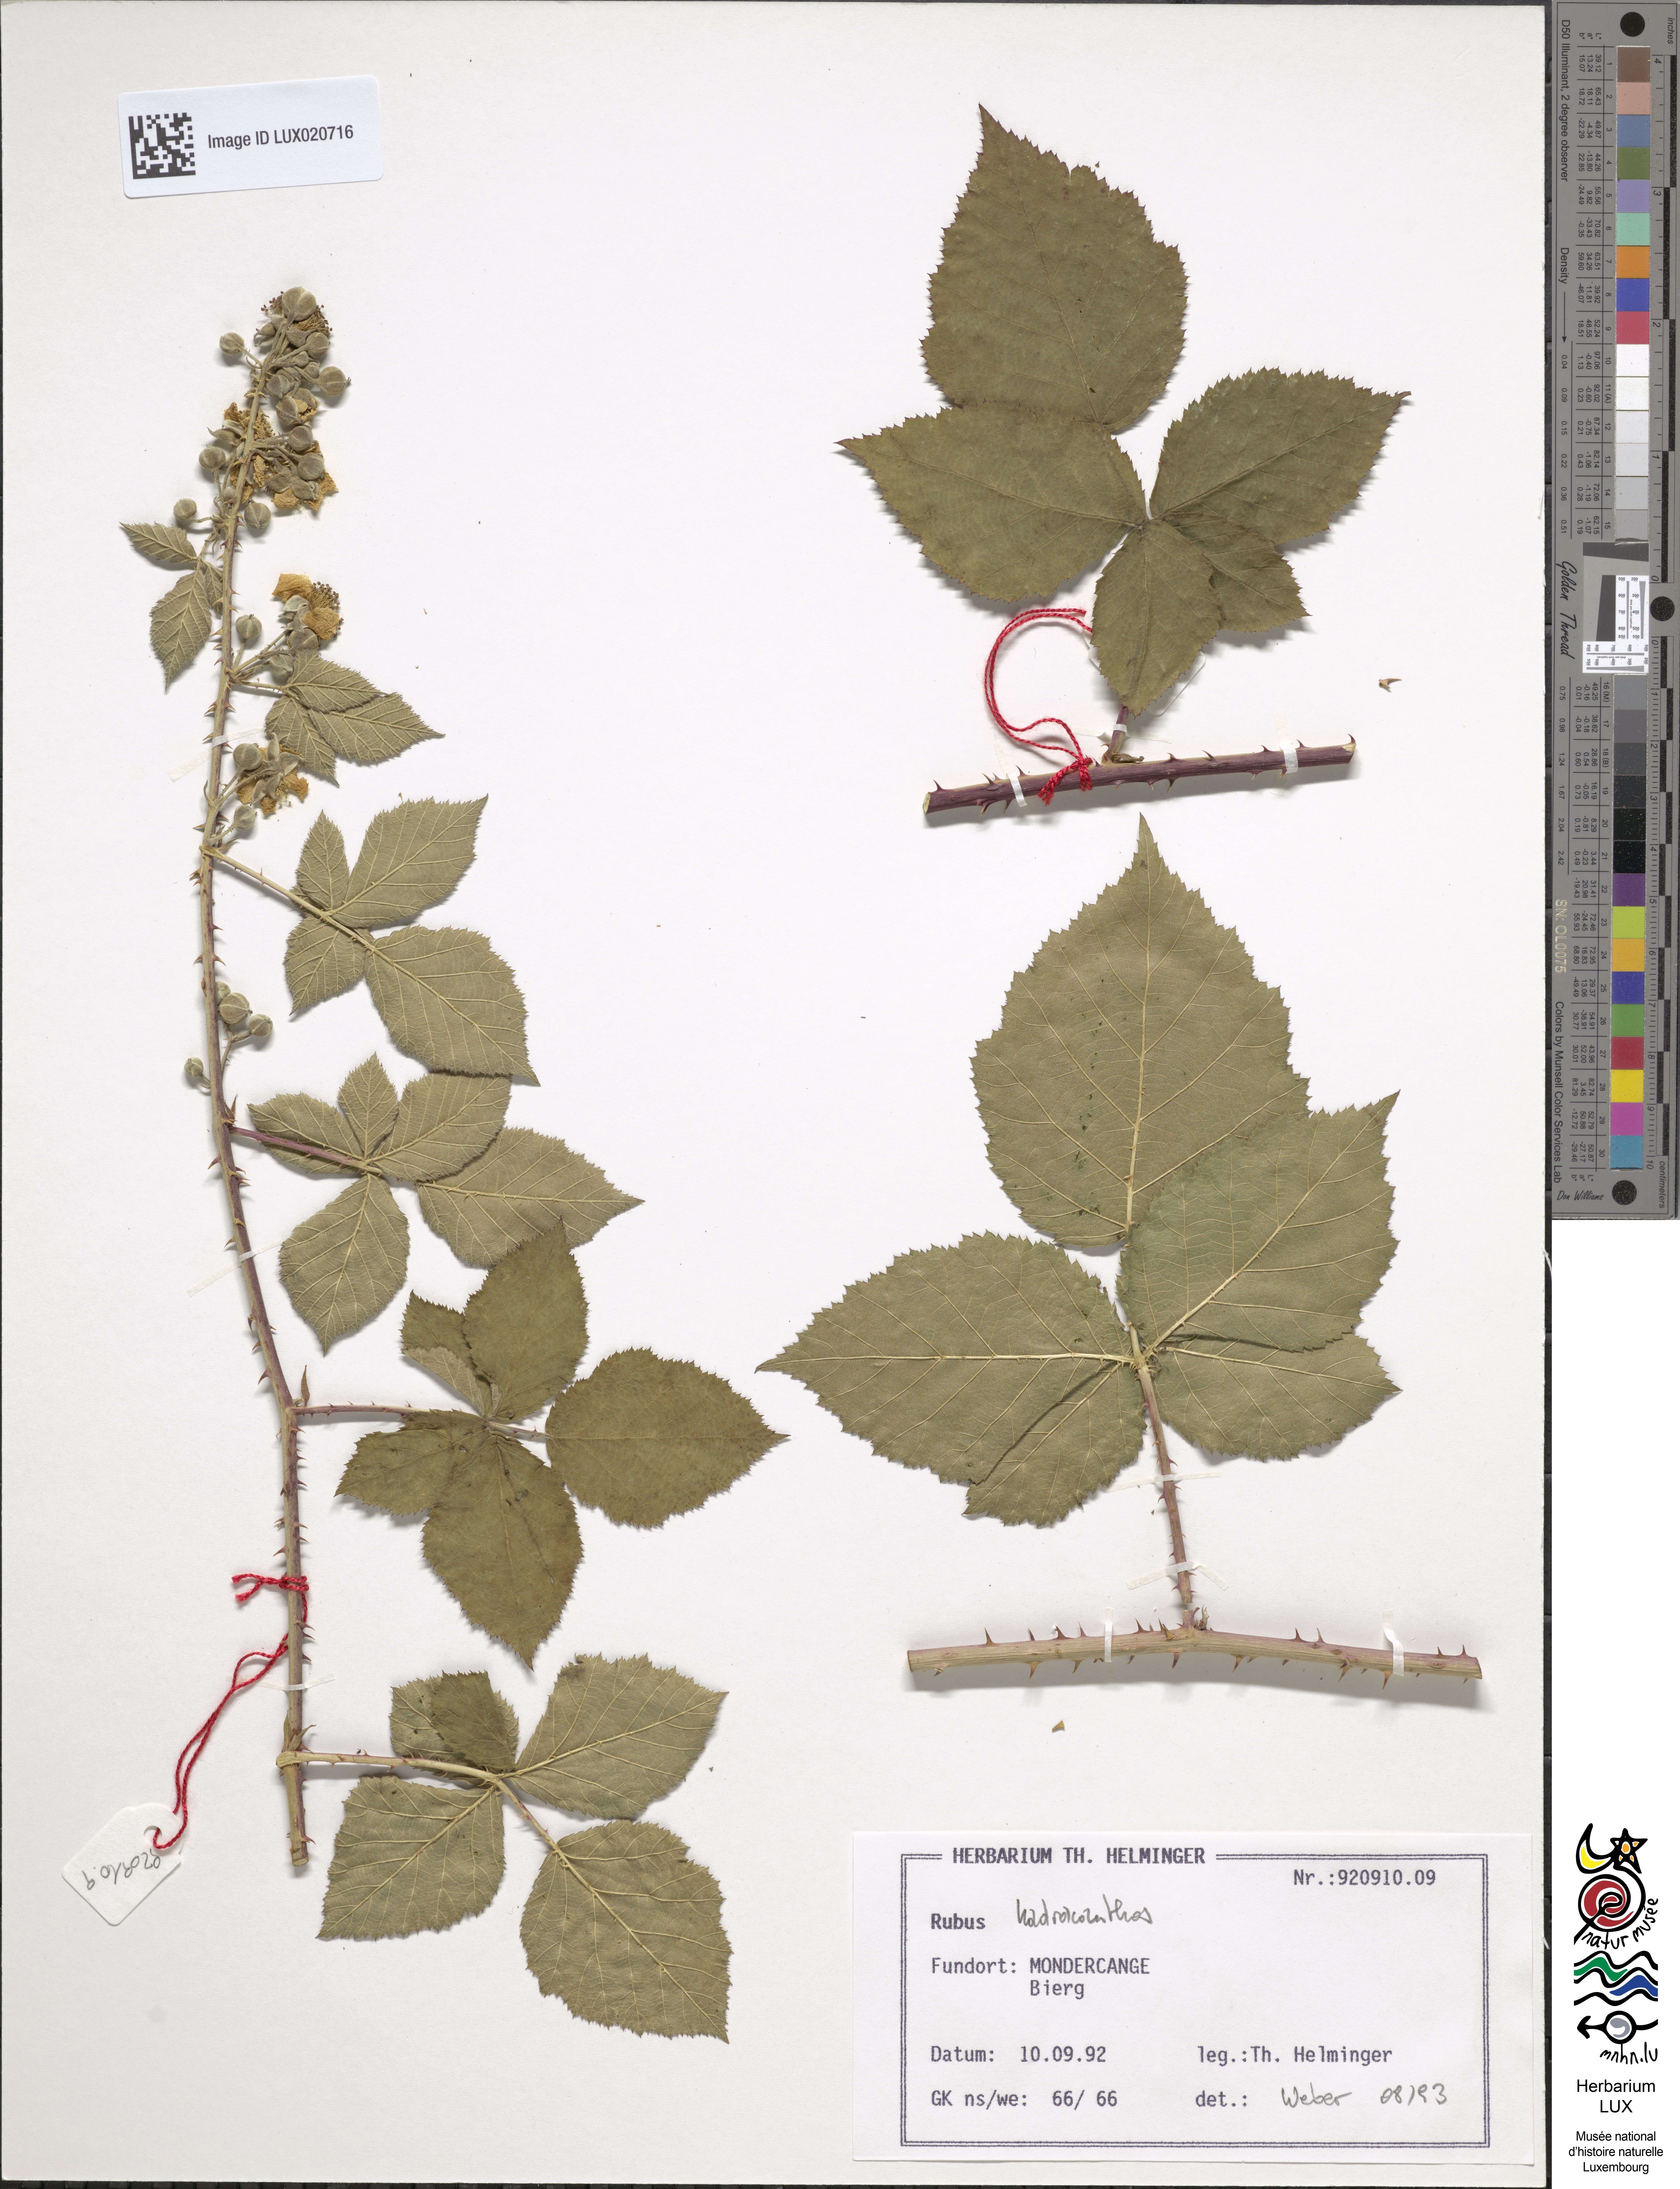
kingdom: Plantae
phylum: Tracheophyta
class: Magnoliopsida
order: Rosales
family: Rosaceae
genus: Rubus
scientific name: Rubus hadracanthos
